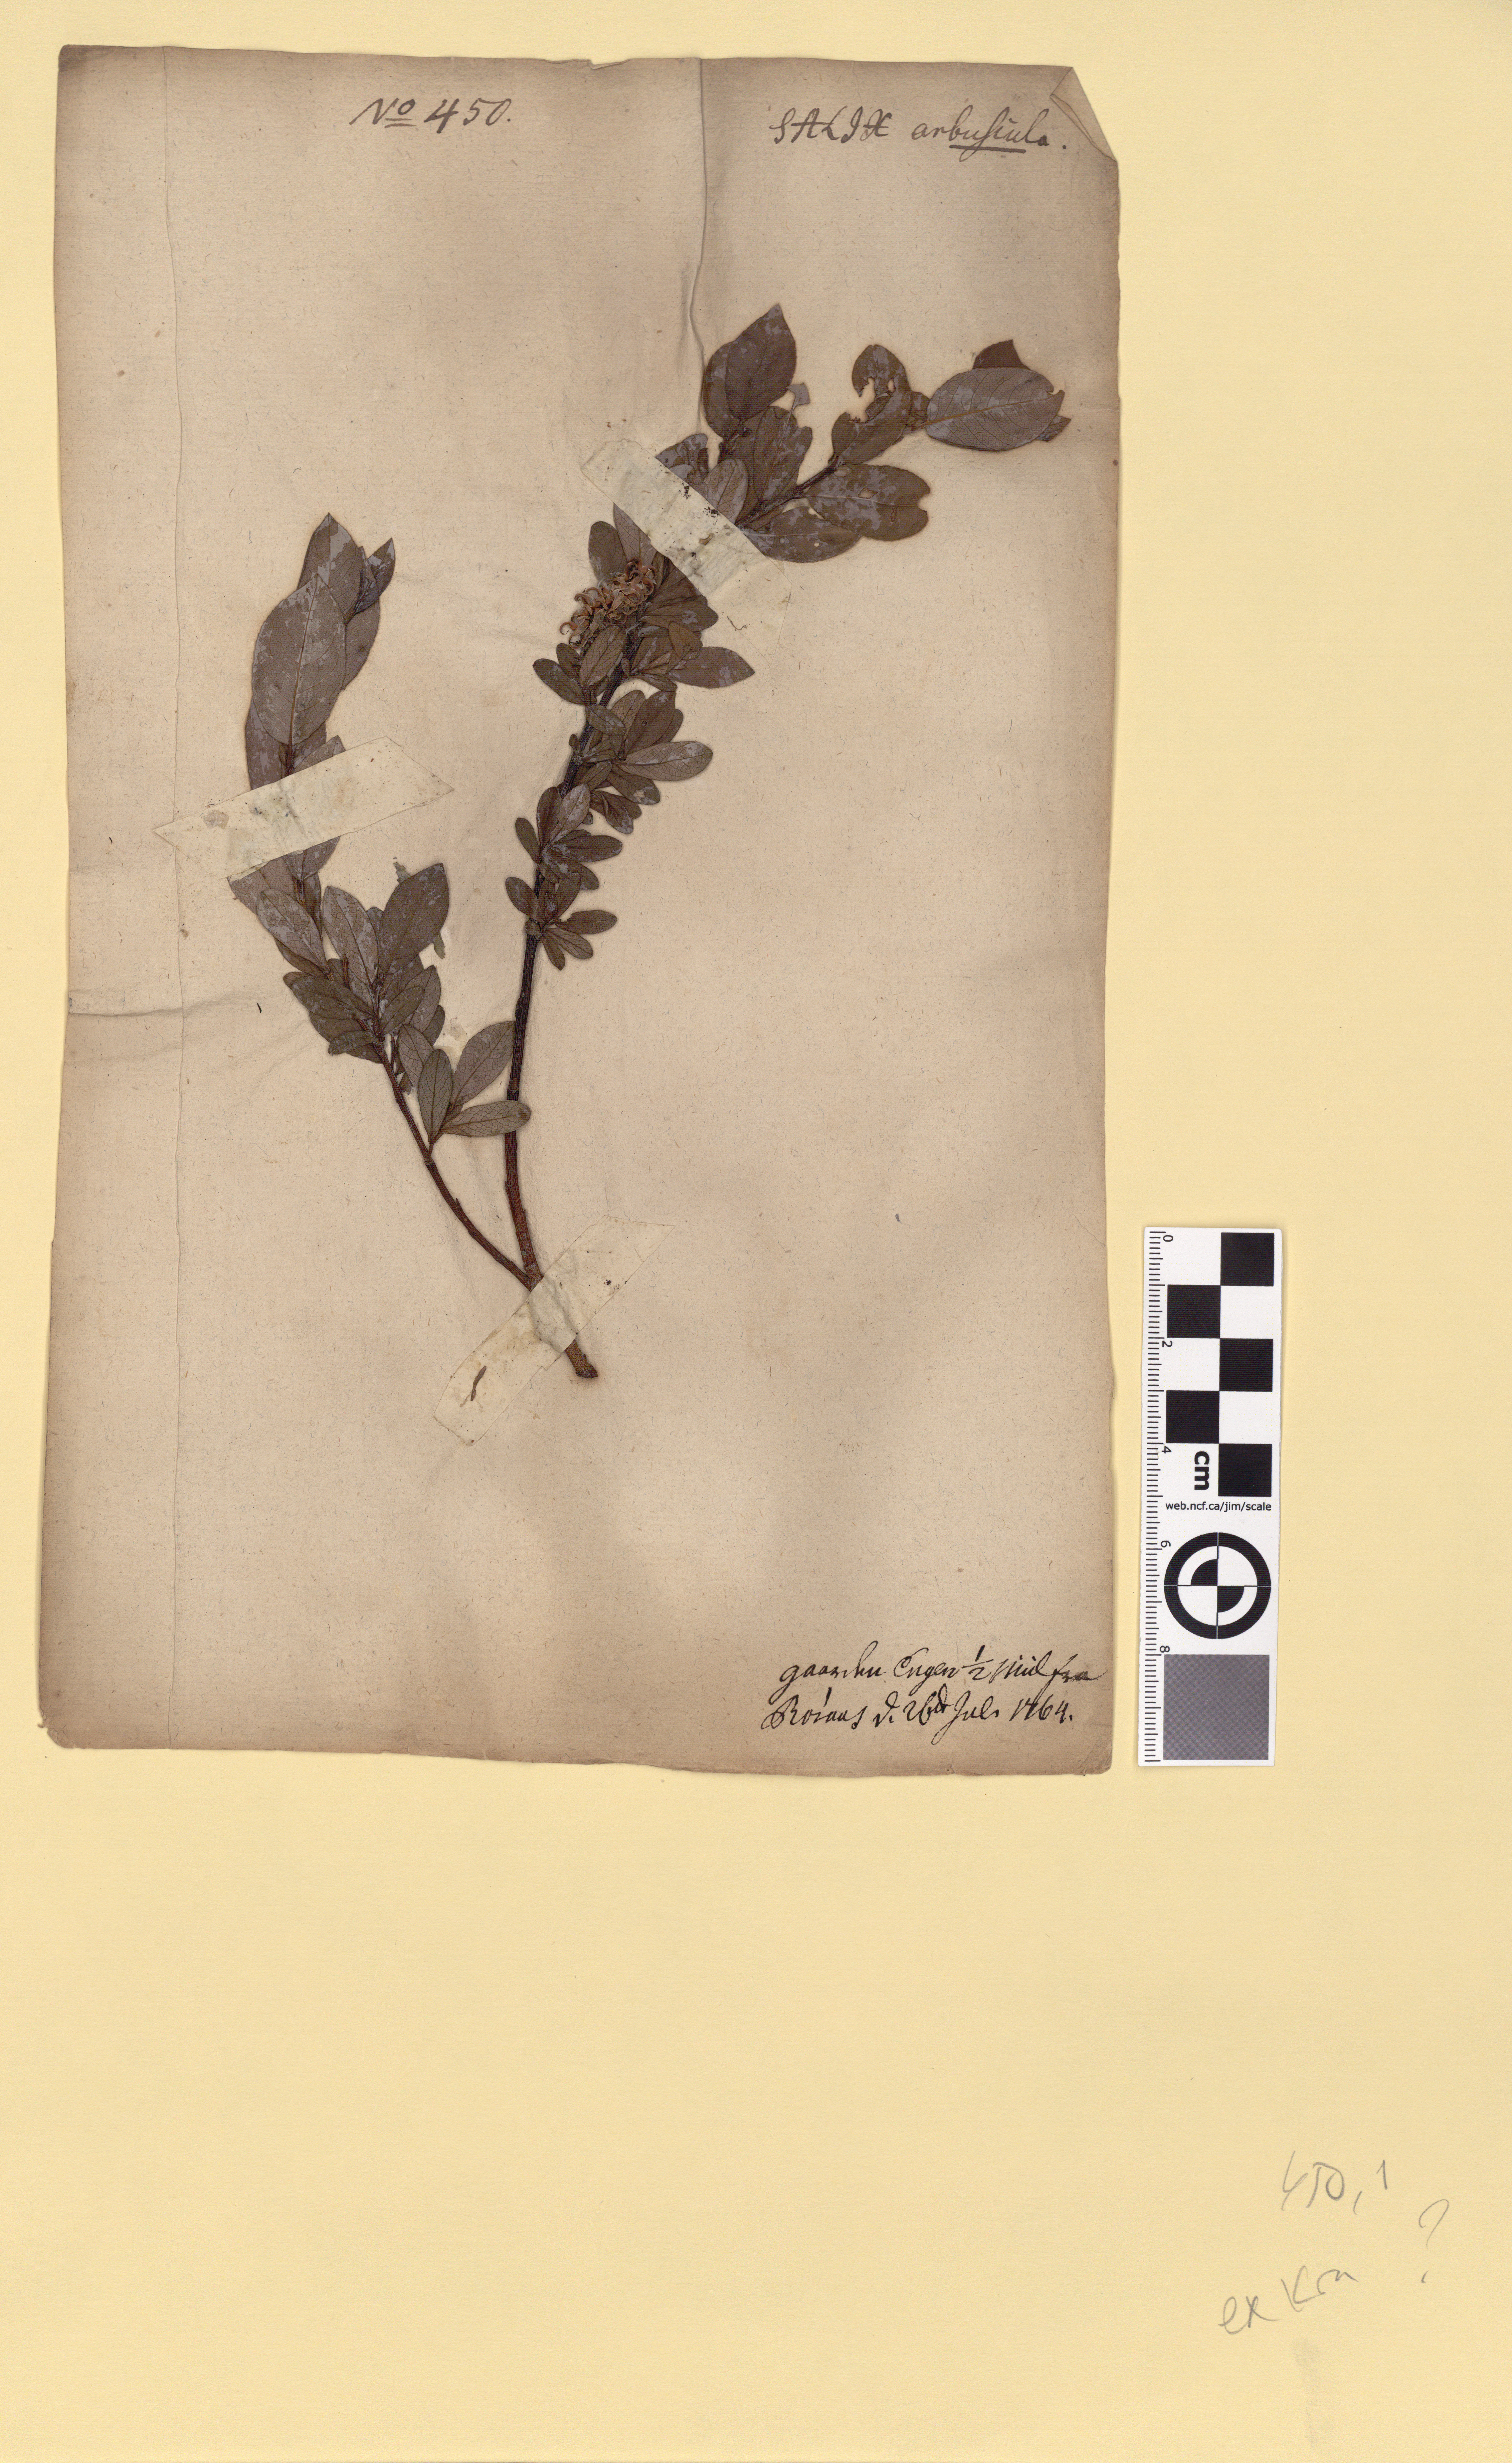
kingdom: Plantae
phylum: Tracheophyta
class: Magnoliopsida
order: Malpighiales
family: Salicaceae
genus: Salix
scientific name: Salix hastata
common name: Halberd willow
